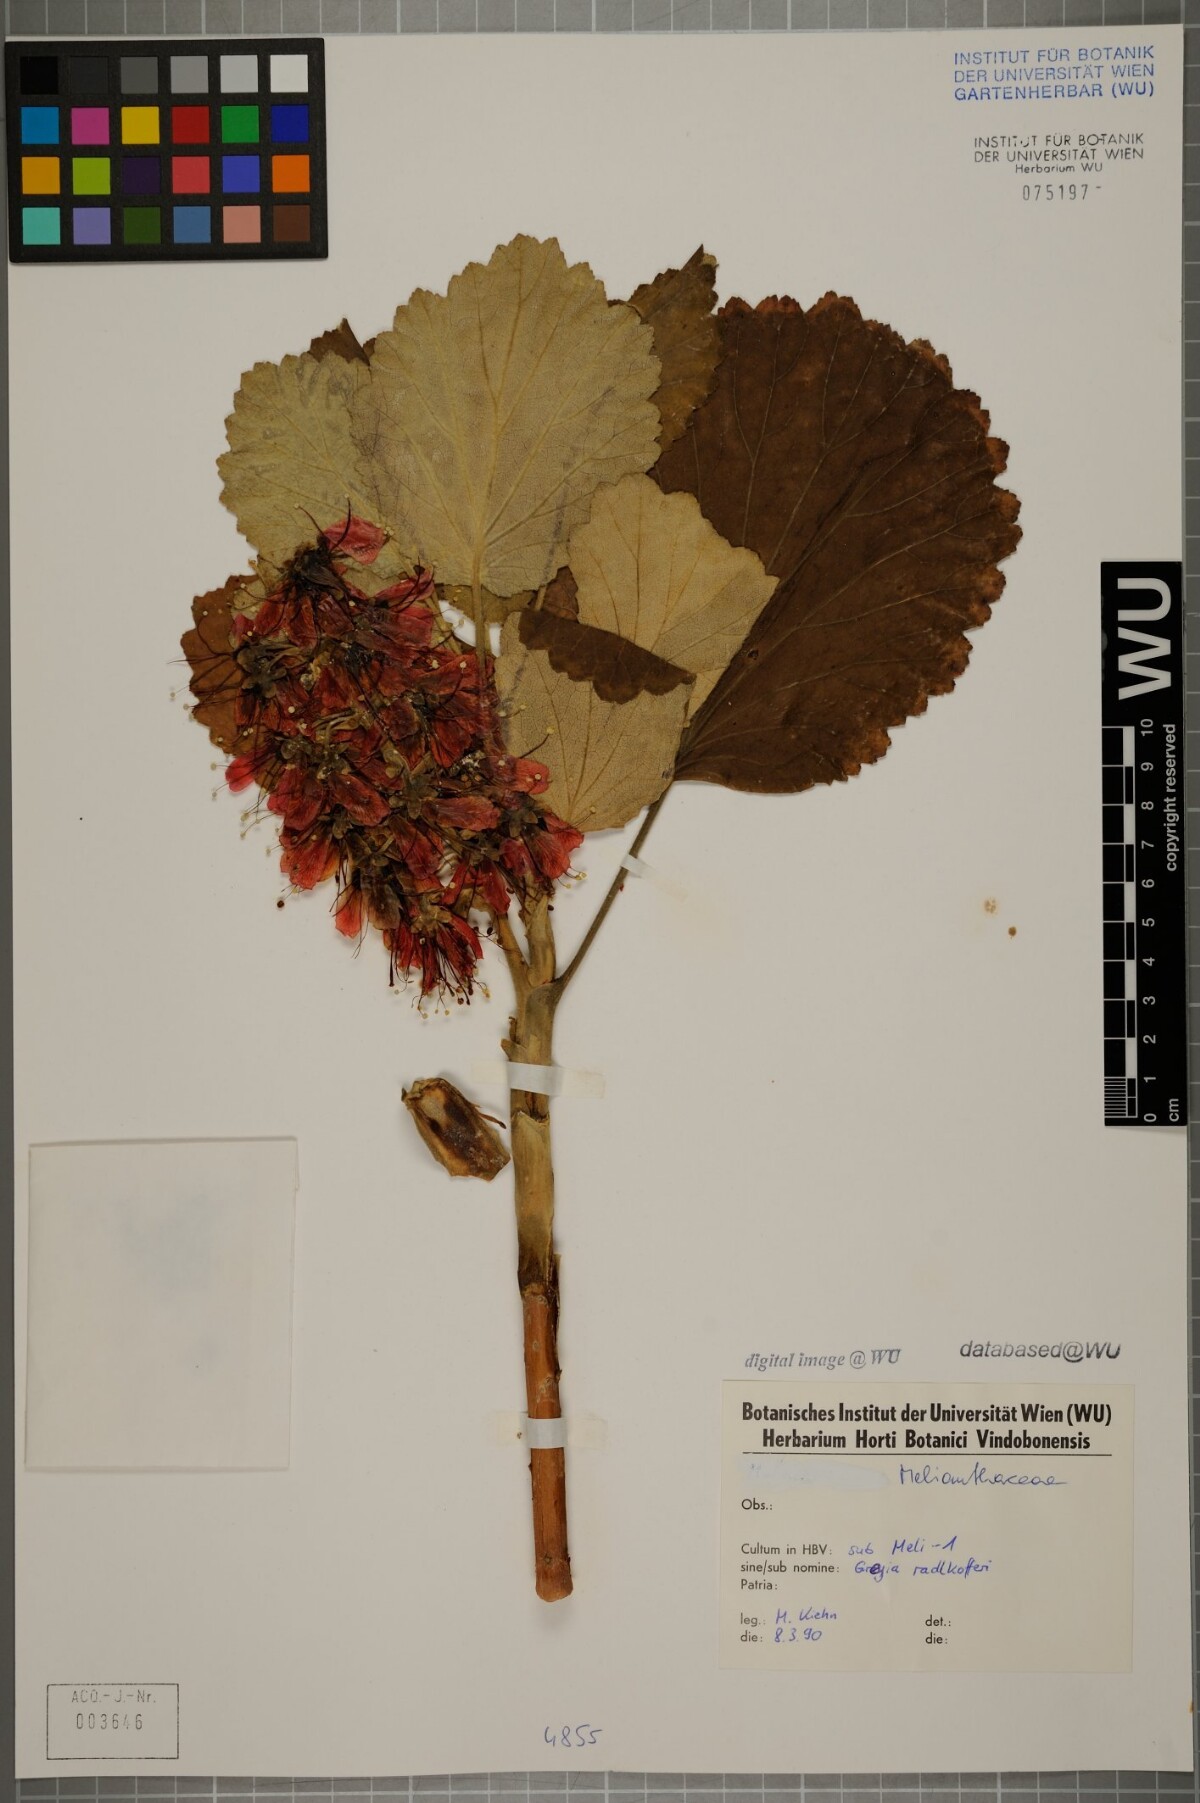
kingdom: Plantae
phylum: Tracheophyta
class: Magnoliopsida
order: Geraniales
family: Francoaceae
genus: Greyia
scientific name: Greyia radlkoferi
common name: Natal bottlebrush
